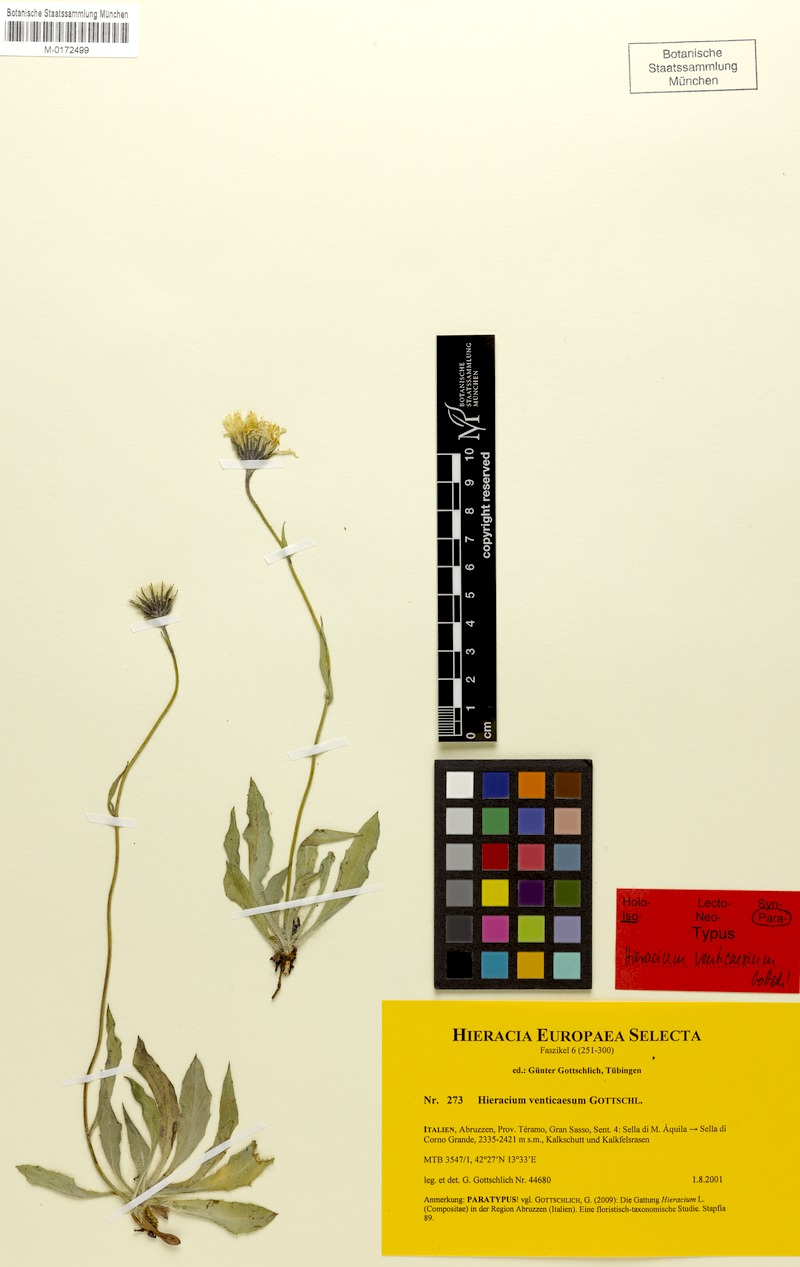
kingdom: Plantae
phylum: Tracheophyta
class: Magnoliopsida
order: Asterales
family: Asteraceae
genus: Hieracium
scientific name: Hieracium venticaesum
